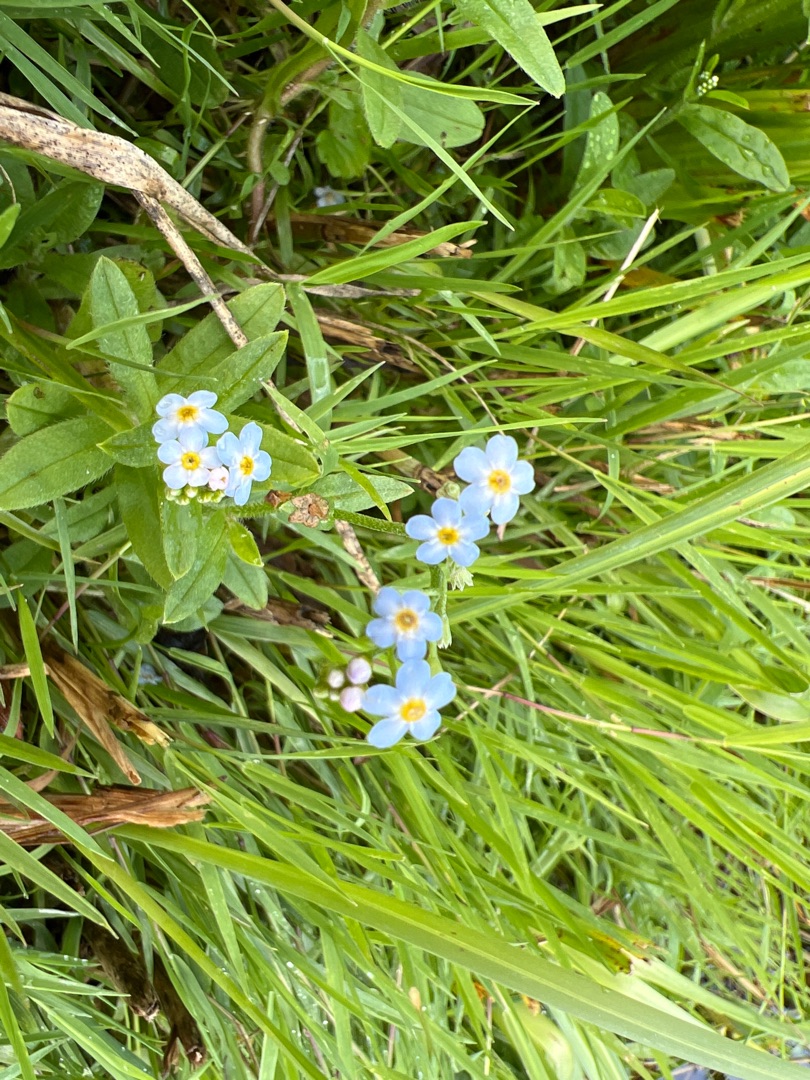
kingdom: Plantae
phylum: Tracheophyta
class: Magnoliopsida
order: Boraginales
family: Boraginaceae
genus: Myosotis
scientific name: Myosotis scorpioides
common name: Eng-forglemmigej
